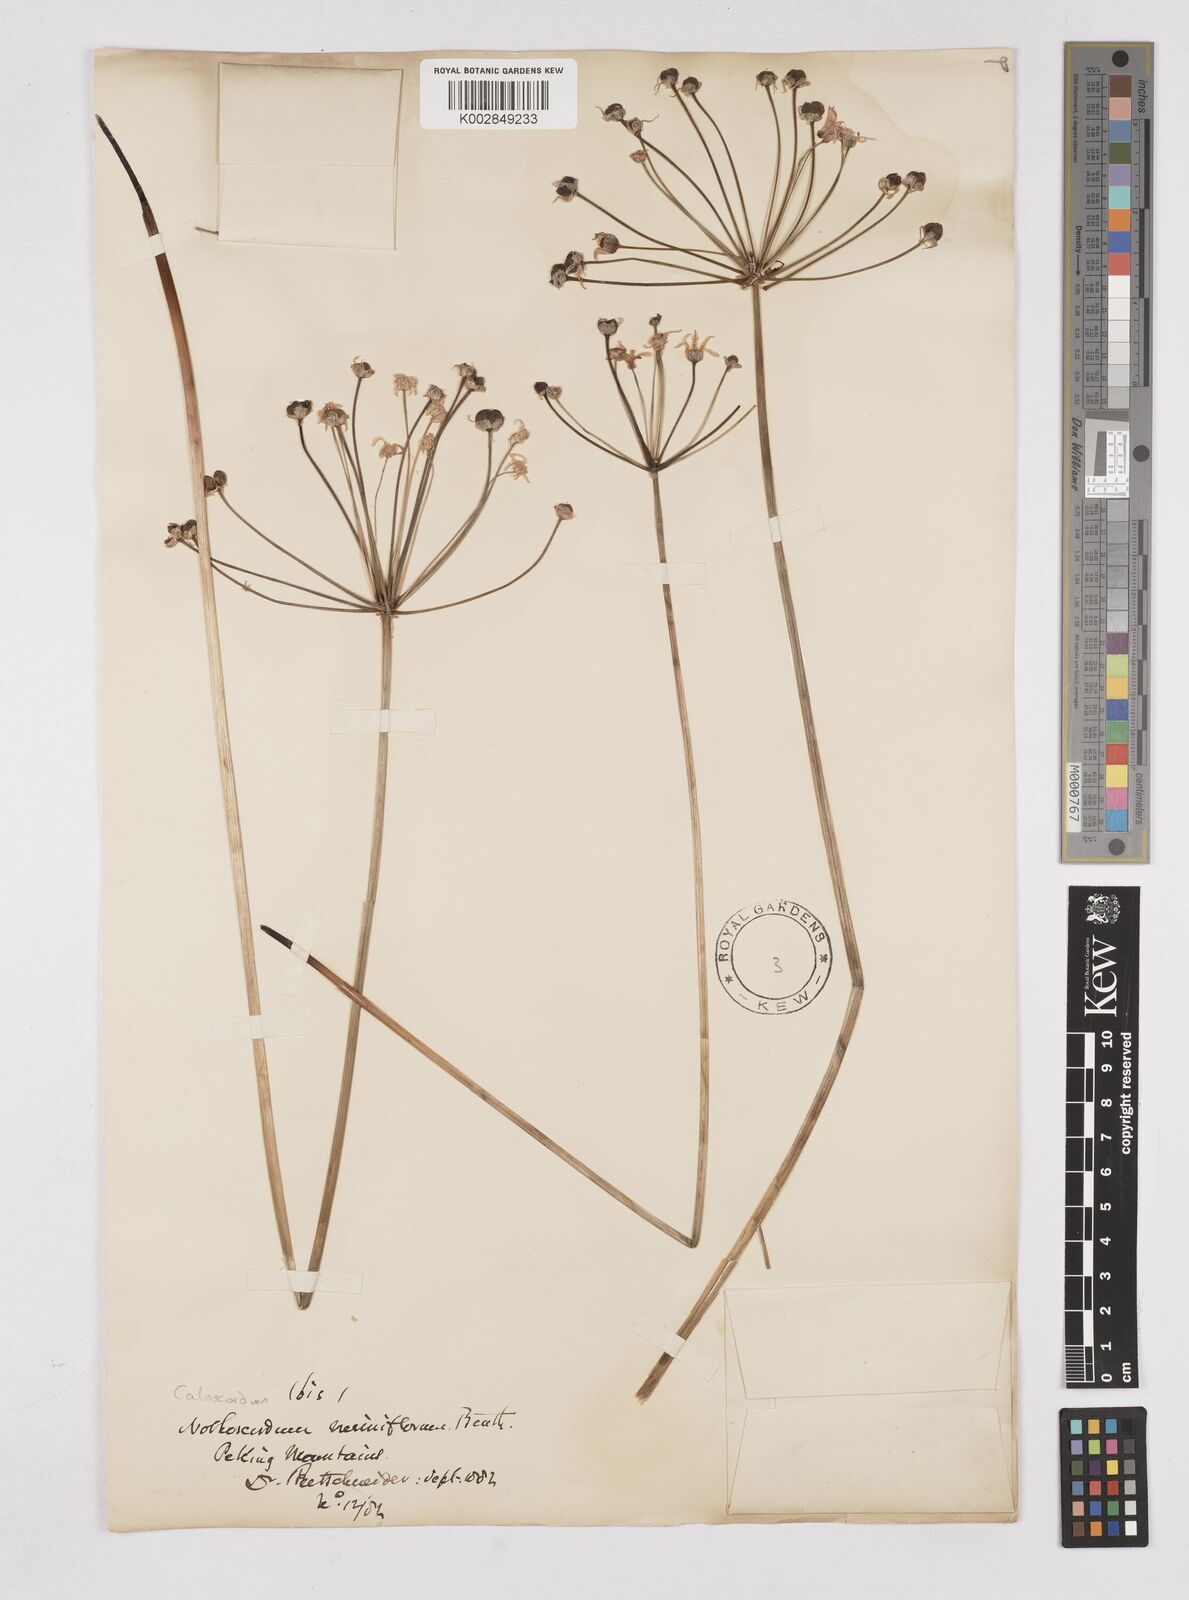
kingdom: Plantae
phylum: Tracheophyta
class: Liliopsida
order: Liliales
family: Liliaceae
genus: Agapanthus
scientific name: Agapanthus
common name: Agapanthus
